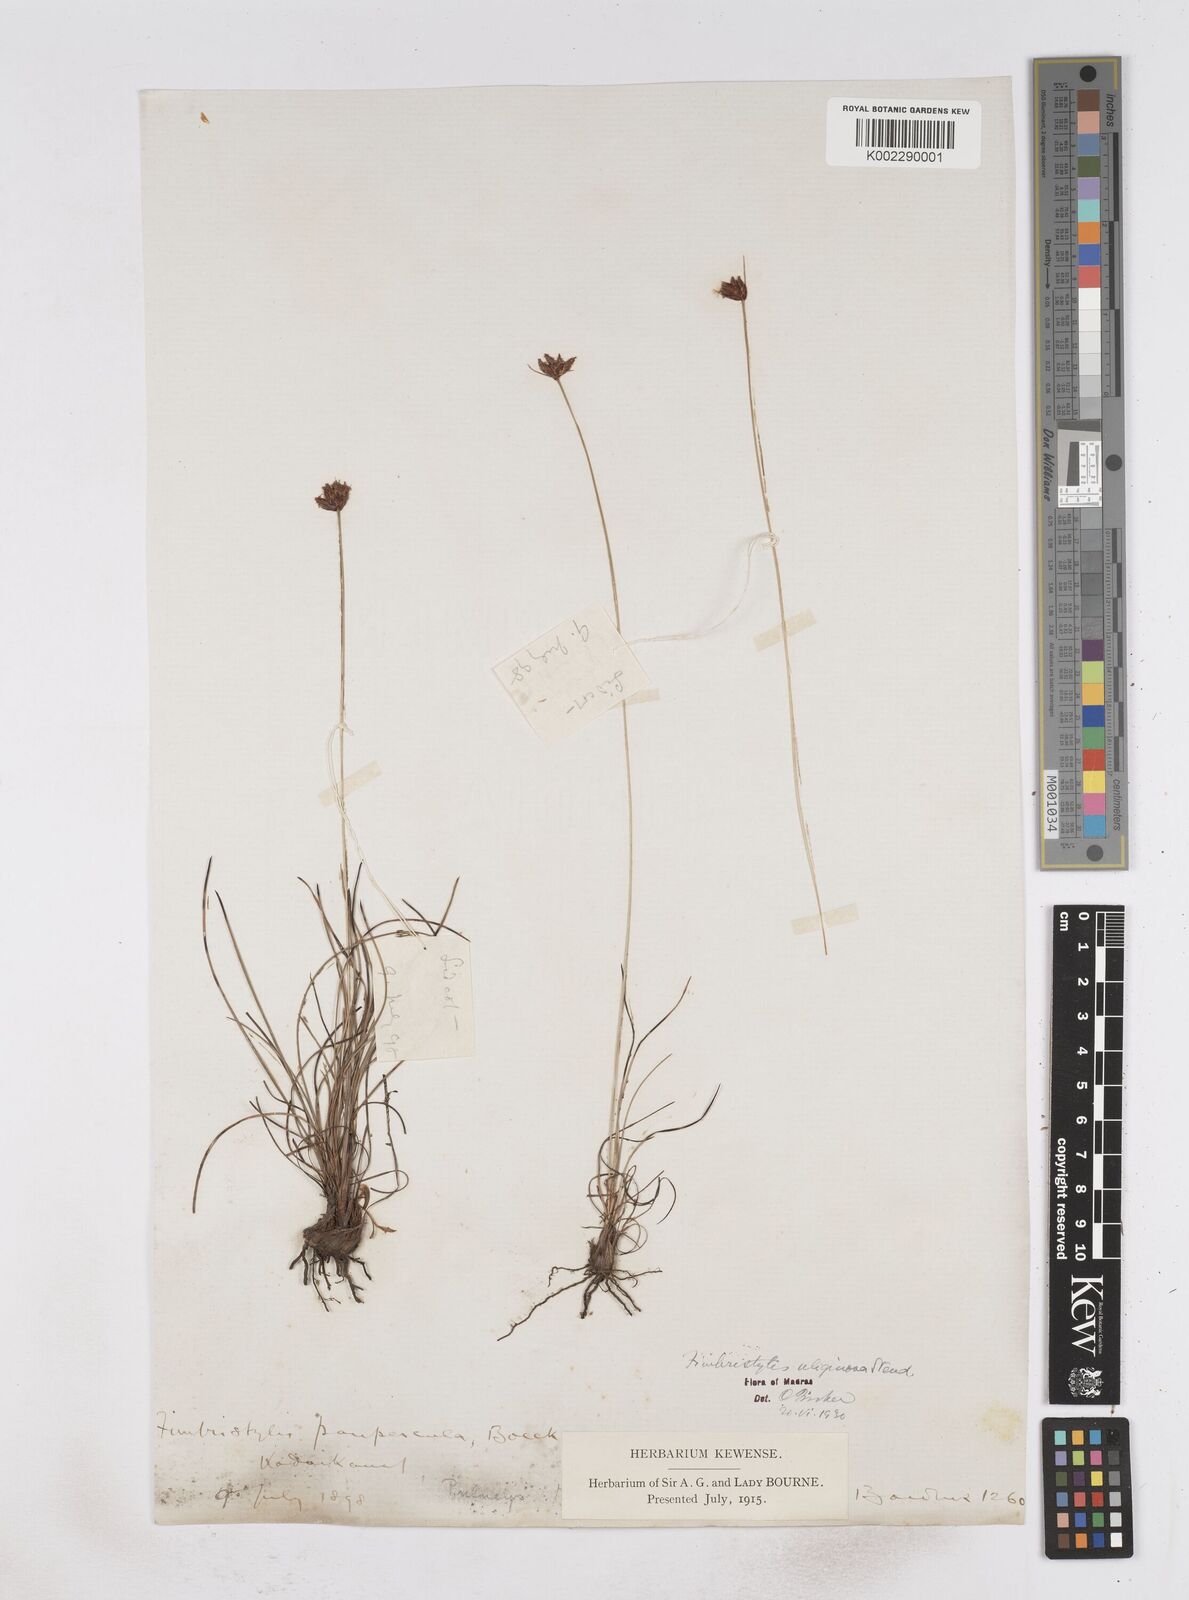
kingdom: Plantae
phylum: Tracheophyta
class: Liliopsida
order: Poales
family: Cyperaceae
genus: Fimbristylis
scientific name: Fimbristylis uliginosa
